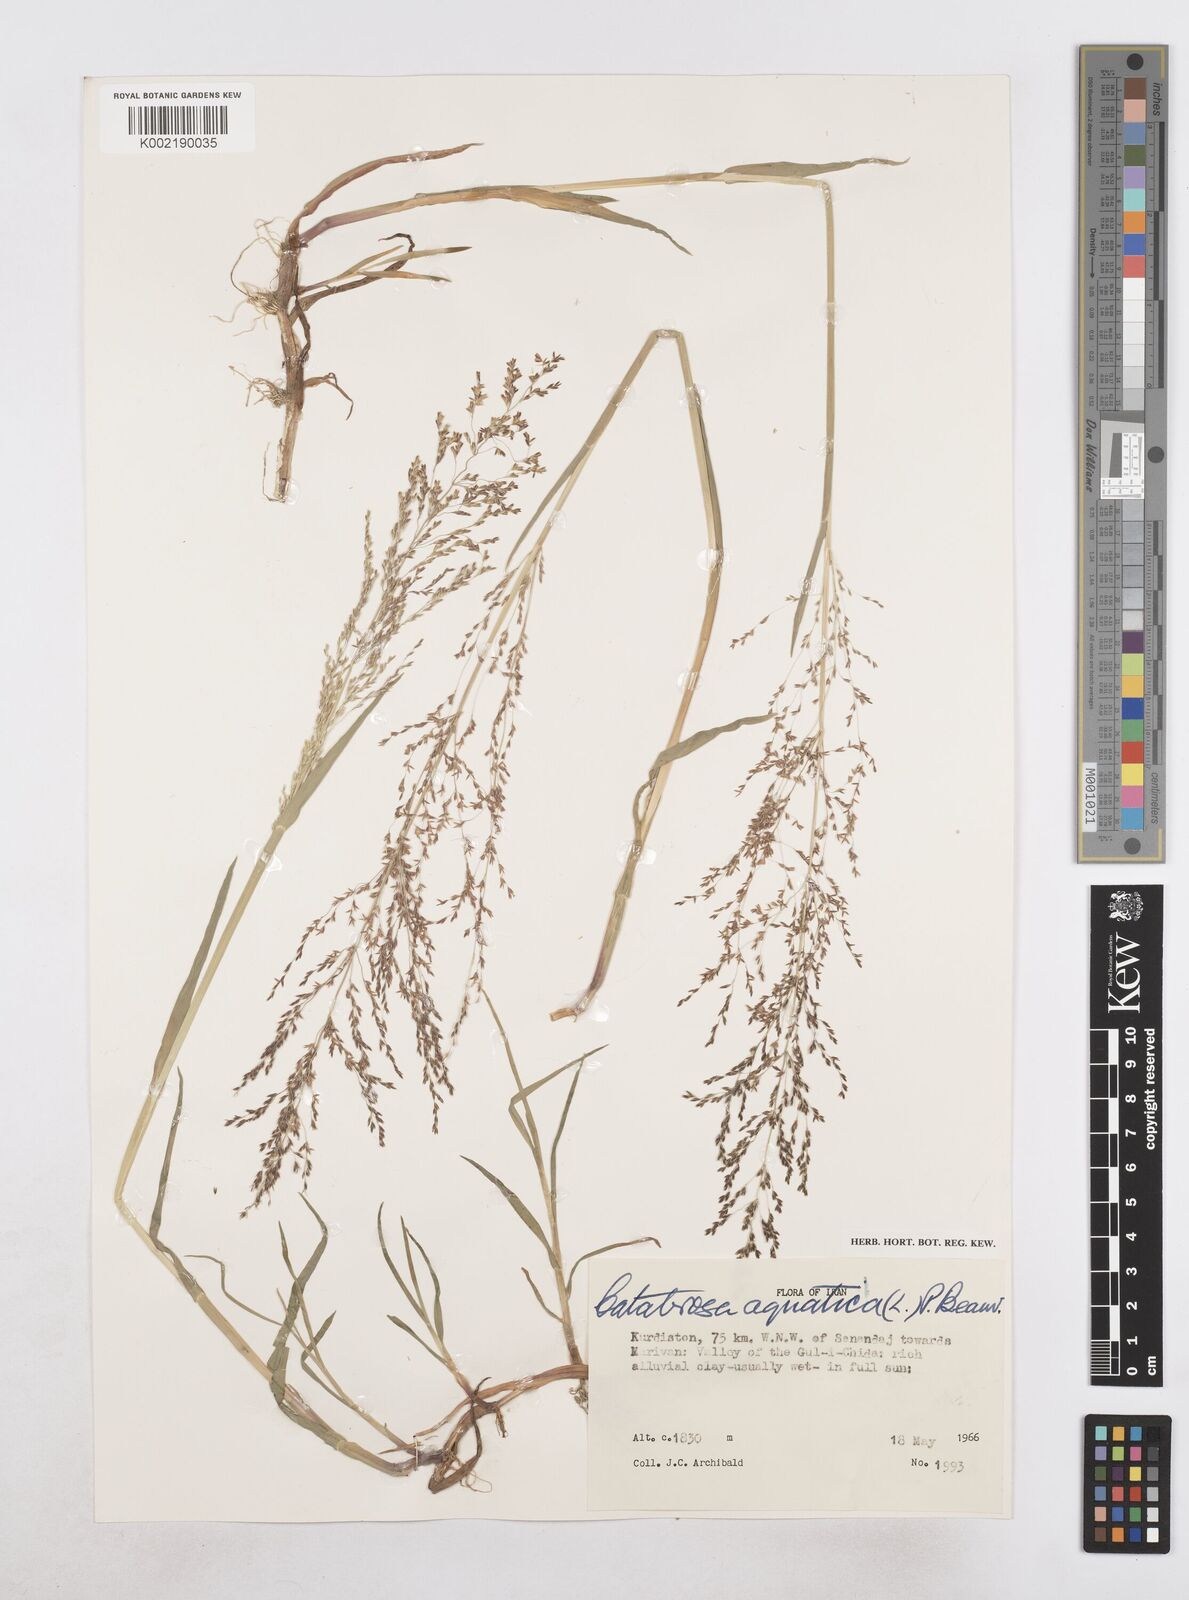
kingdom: Plantae
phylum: Tracheophyta
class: Liliopsida
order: Poales
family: Poaceae
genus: Catabrosa
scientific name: Catabrosa aquatica
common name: Whorl-grass
